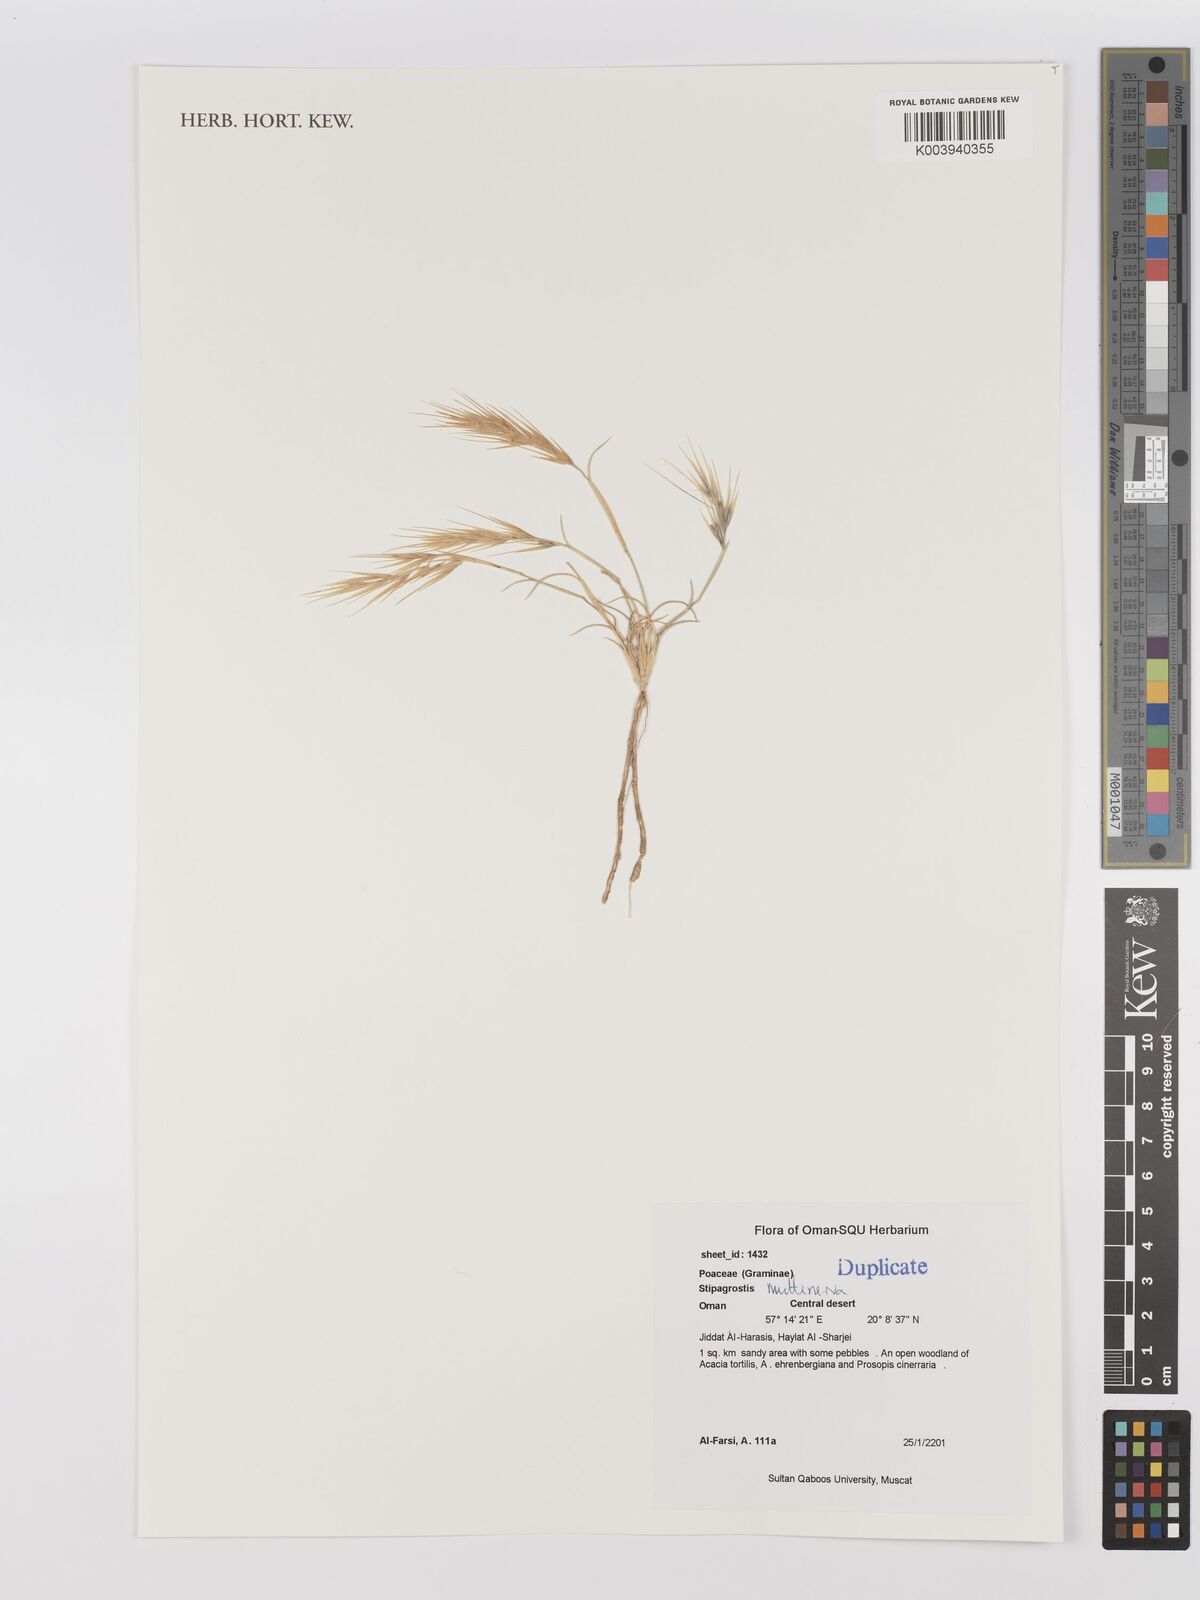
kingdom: Plantae
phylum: Tracheophyta
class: Liliopsida
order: Poales
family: Poaceae
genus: Stipagrostis
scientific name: Stipagrostis multinerva
